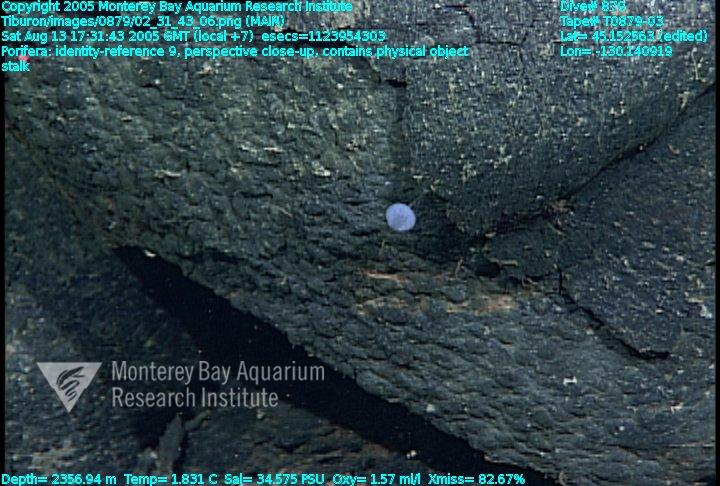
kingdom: Animalia
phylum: Porifera
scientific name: Porifera
